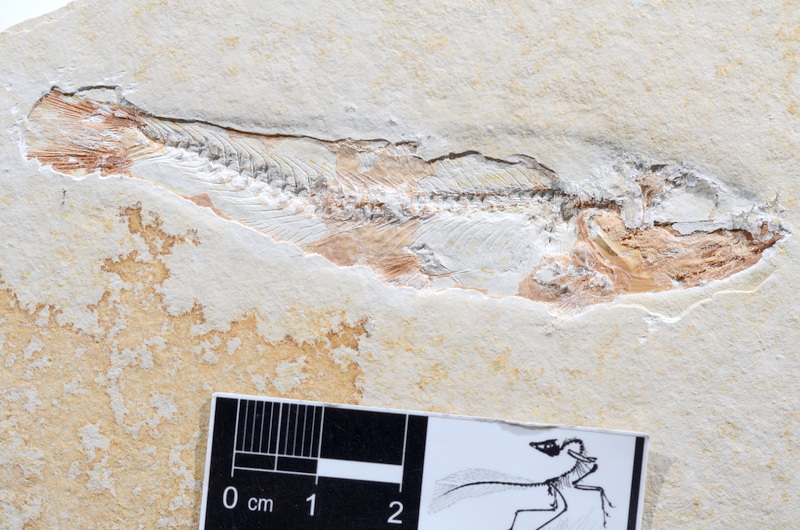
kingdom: Animalia
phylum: Chordata
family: Ascalaboidae
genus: Ascalabos
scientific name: Ascalabos voithii
